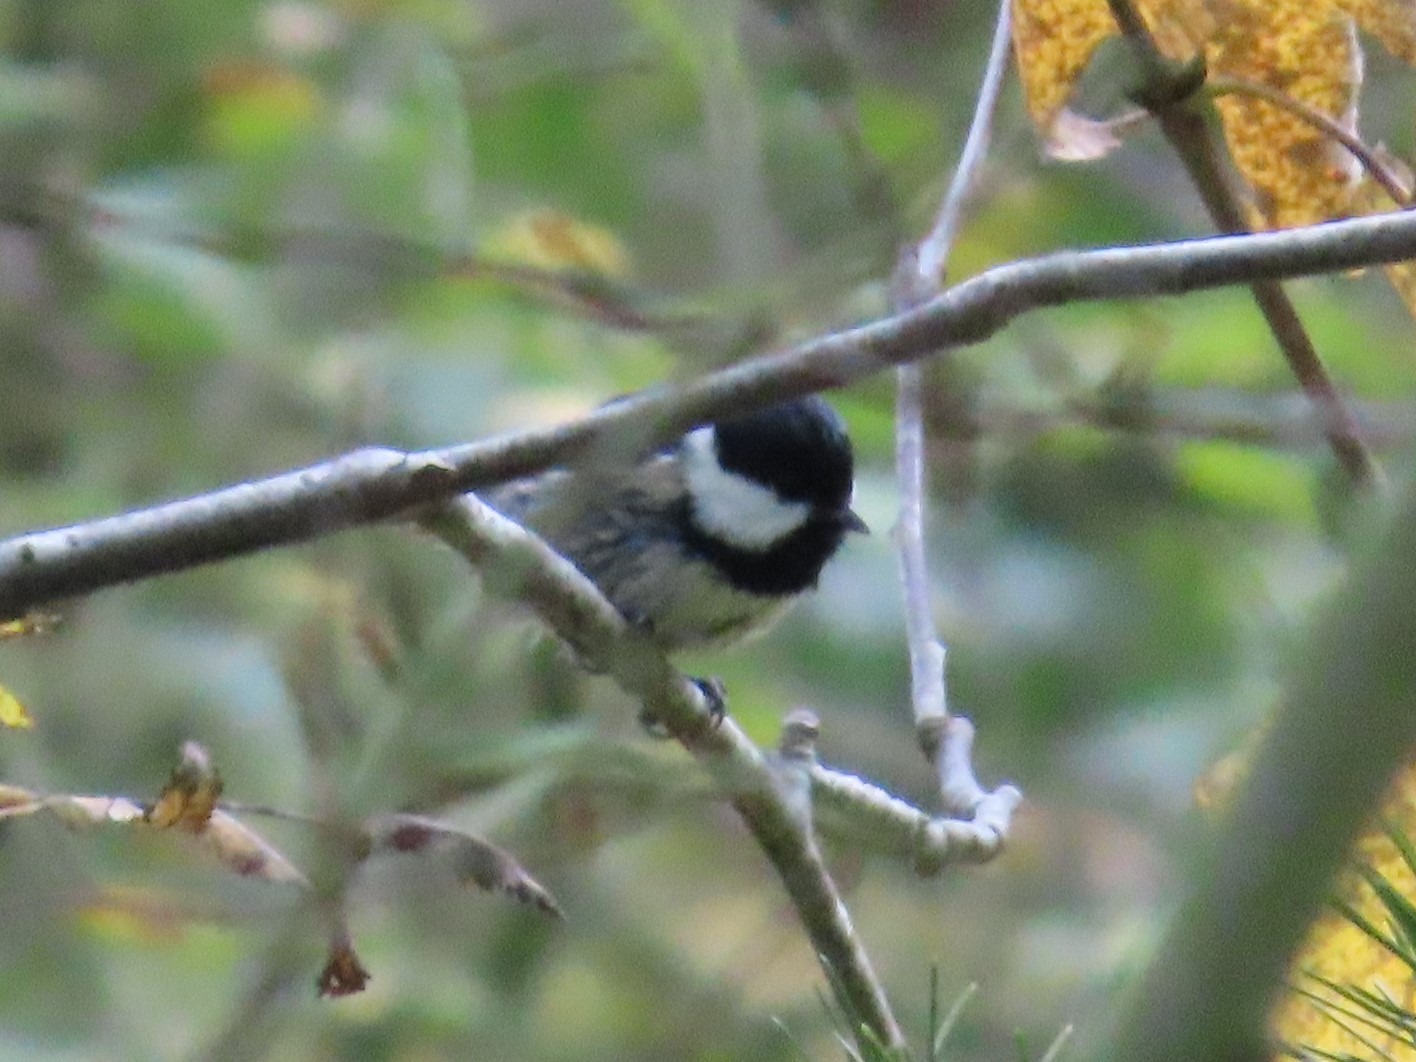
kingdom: Animalia
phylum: Chordata
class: Aves
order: Passeriformes
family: Paridae
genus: Periparus
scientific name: Periparus ater
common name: Sortmejse
